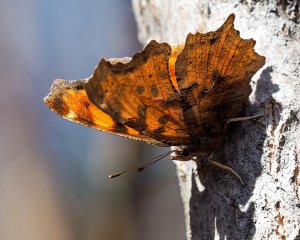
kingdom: Animalia
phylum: Arthropoda
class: Insecta
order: Lepidoptera
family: Nymphalidae
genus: Polygonia
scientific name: Polygonia satyrus
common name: Satyr Comma
